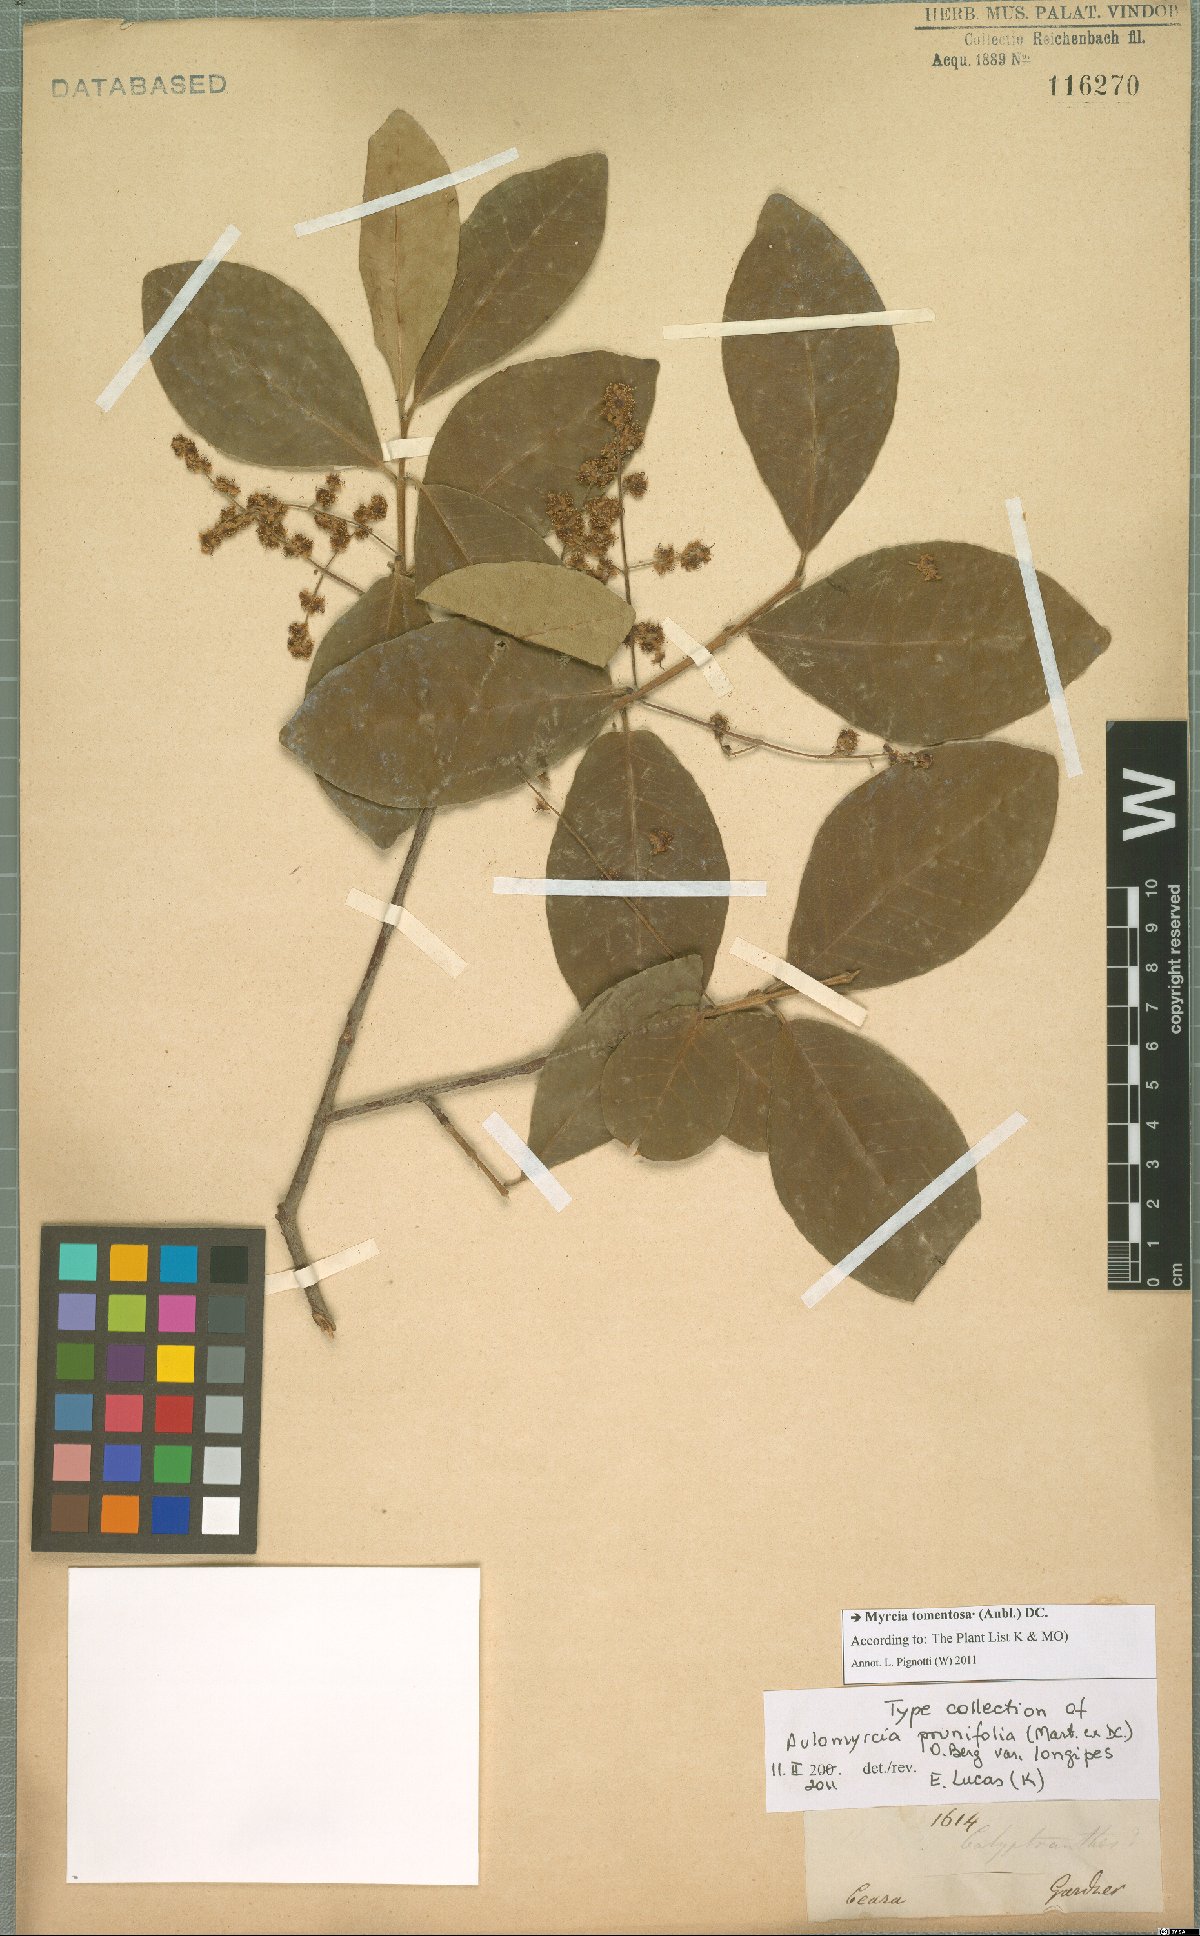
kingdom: Plantae
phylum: Tracheophyta
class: Magnoliopsida
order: Myrtales
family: Myrtaceae
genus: Myrcia
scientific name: Myrcia tomentosa
